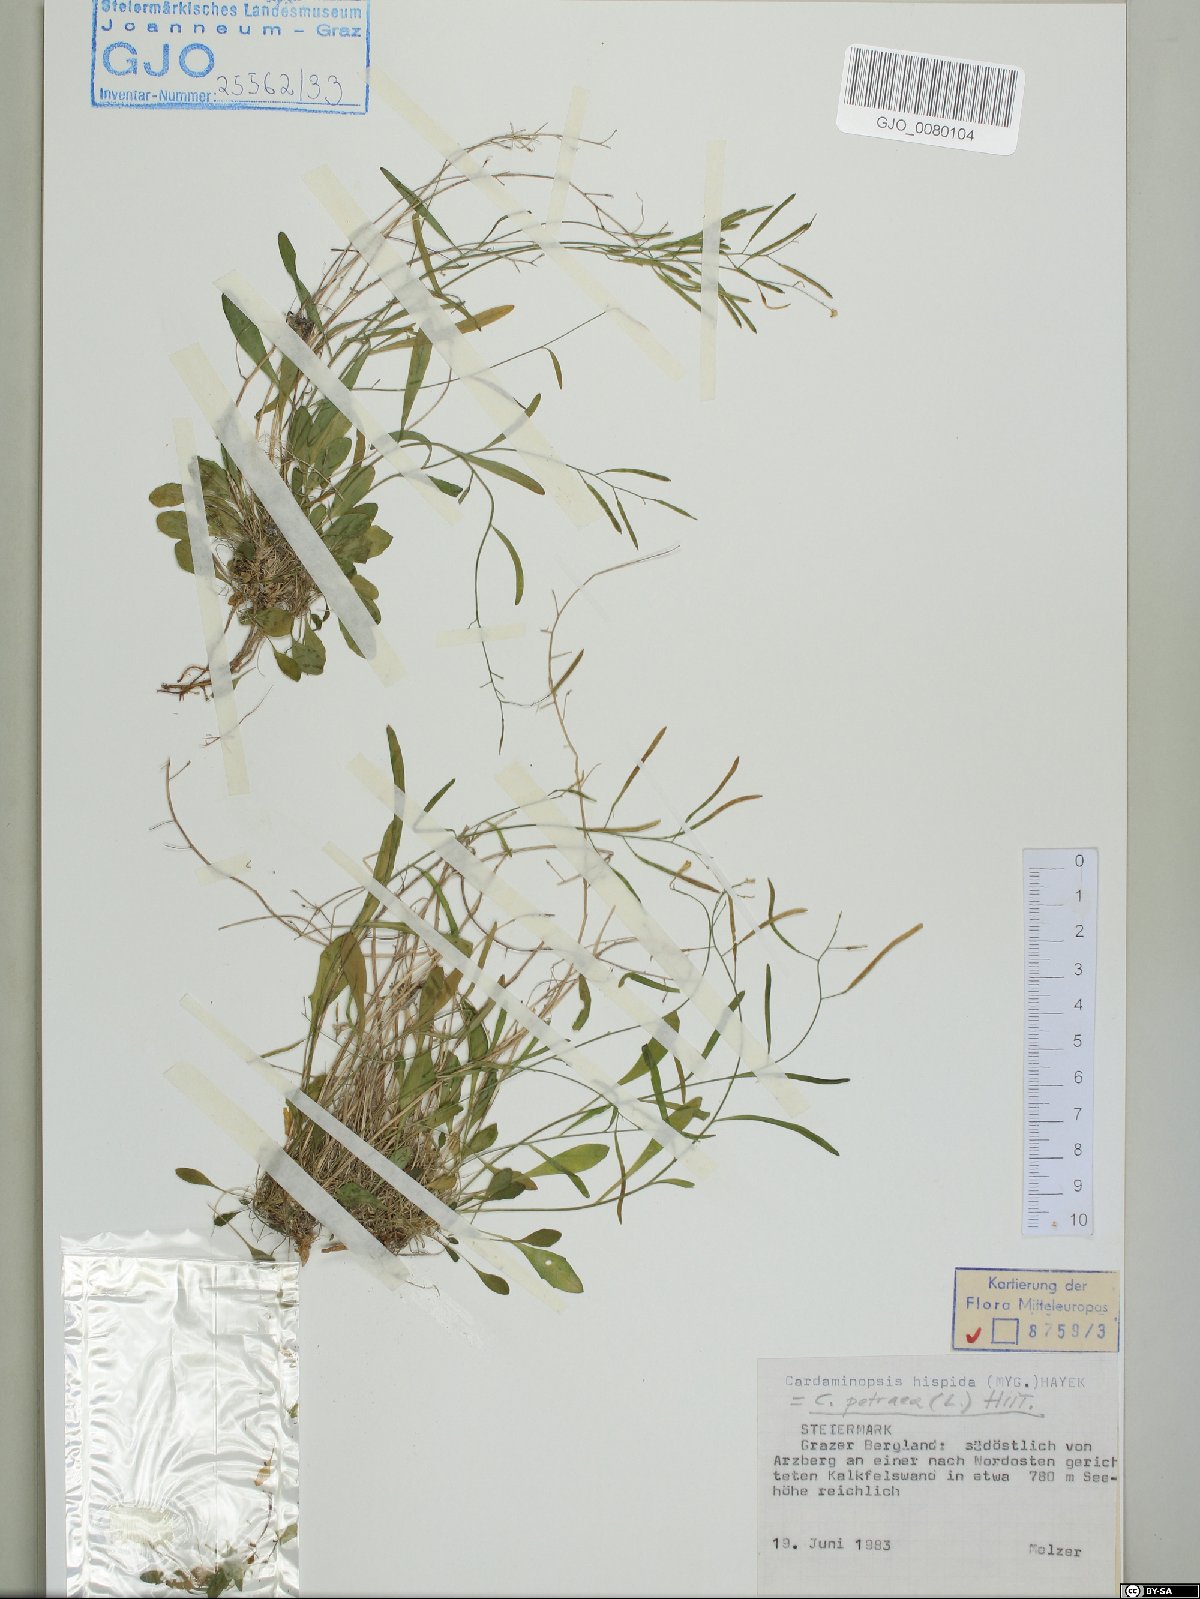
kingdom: Plantae
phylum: Tracheophyta
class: Magnoliopsida
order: Brassicales
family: Brassicaceae
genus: Arabidopsis
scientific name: Arabidopsis lyrata
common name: Lyrate rockcress
